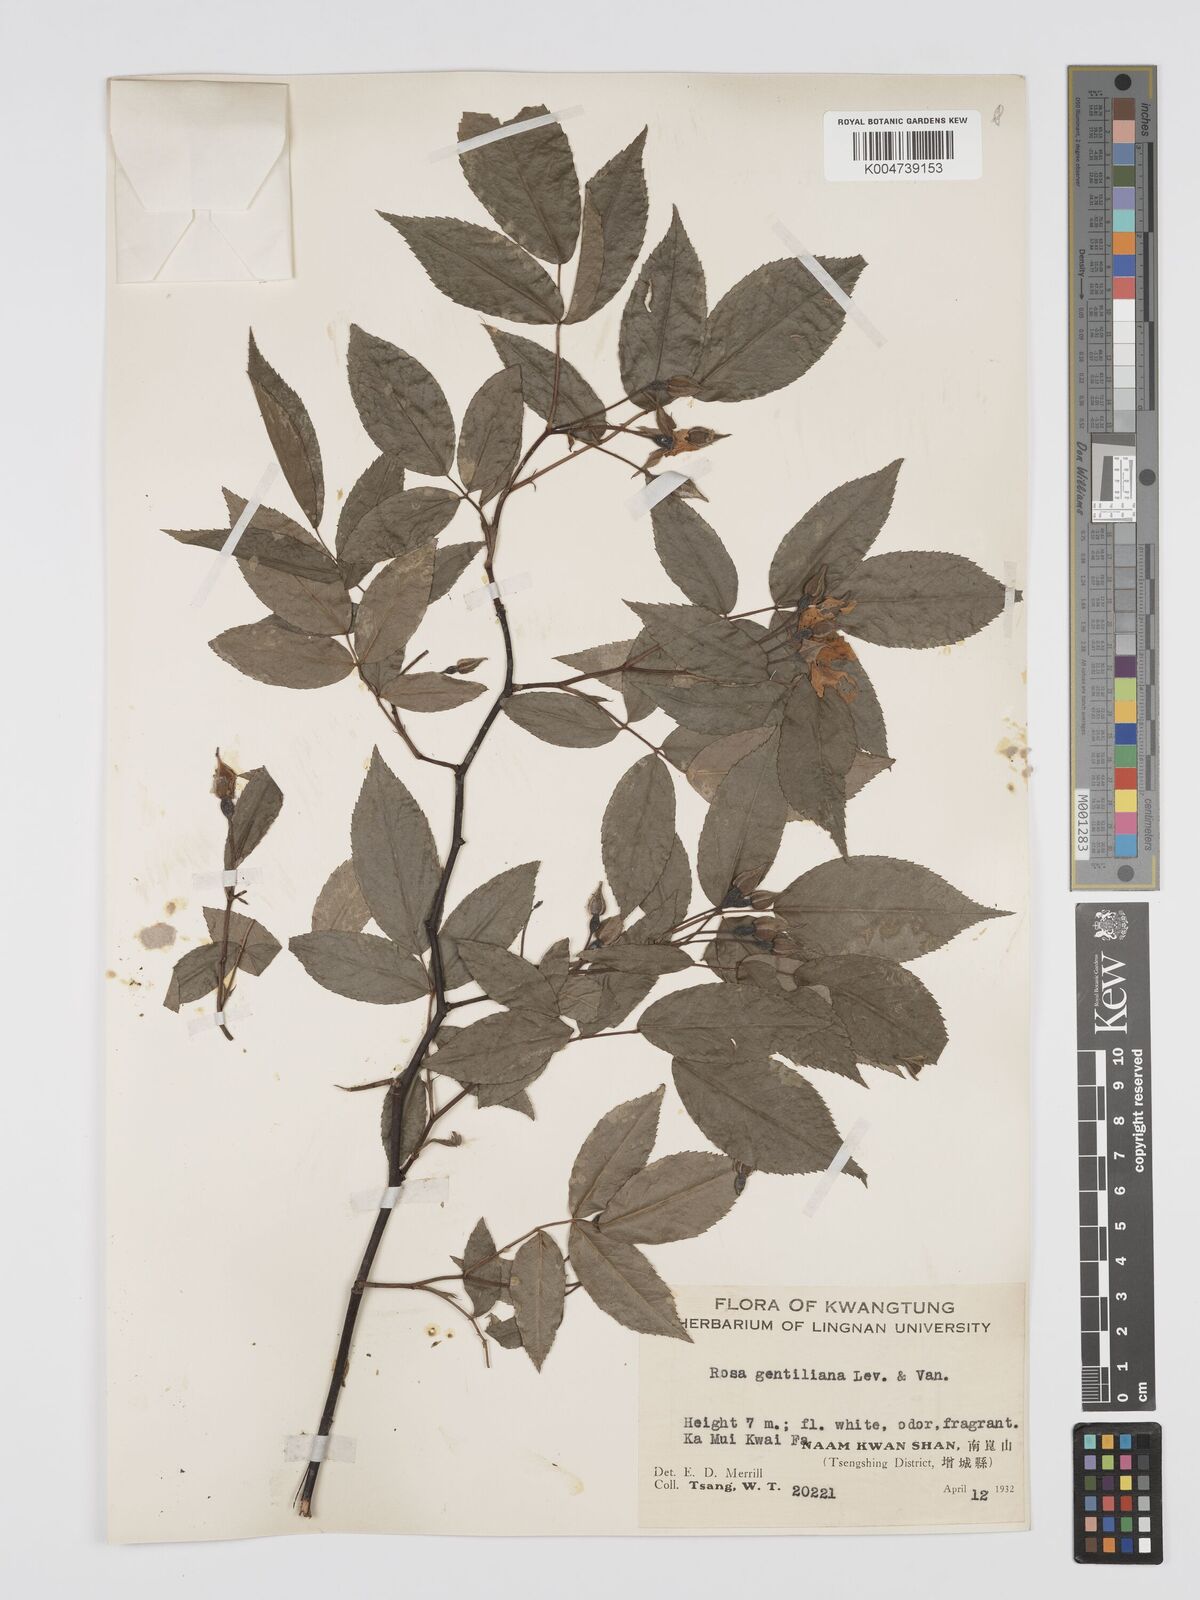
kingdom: Plantae
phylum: Tracheophyta
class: Magnoliopsida
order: Rosales
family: Rosaceae
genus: Rosa
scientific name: Rosa henryi
